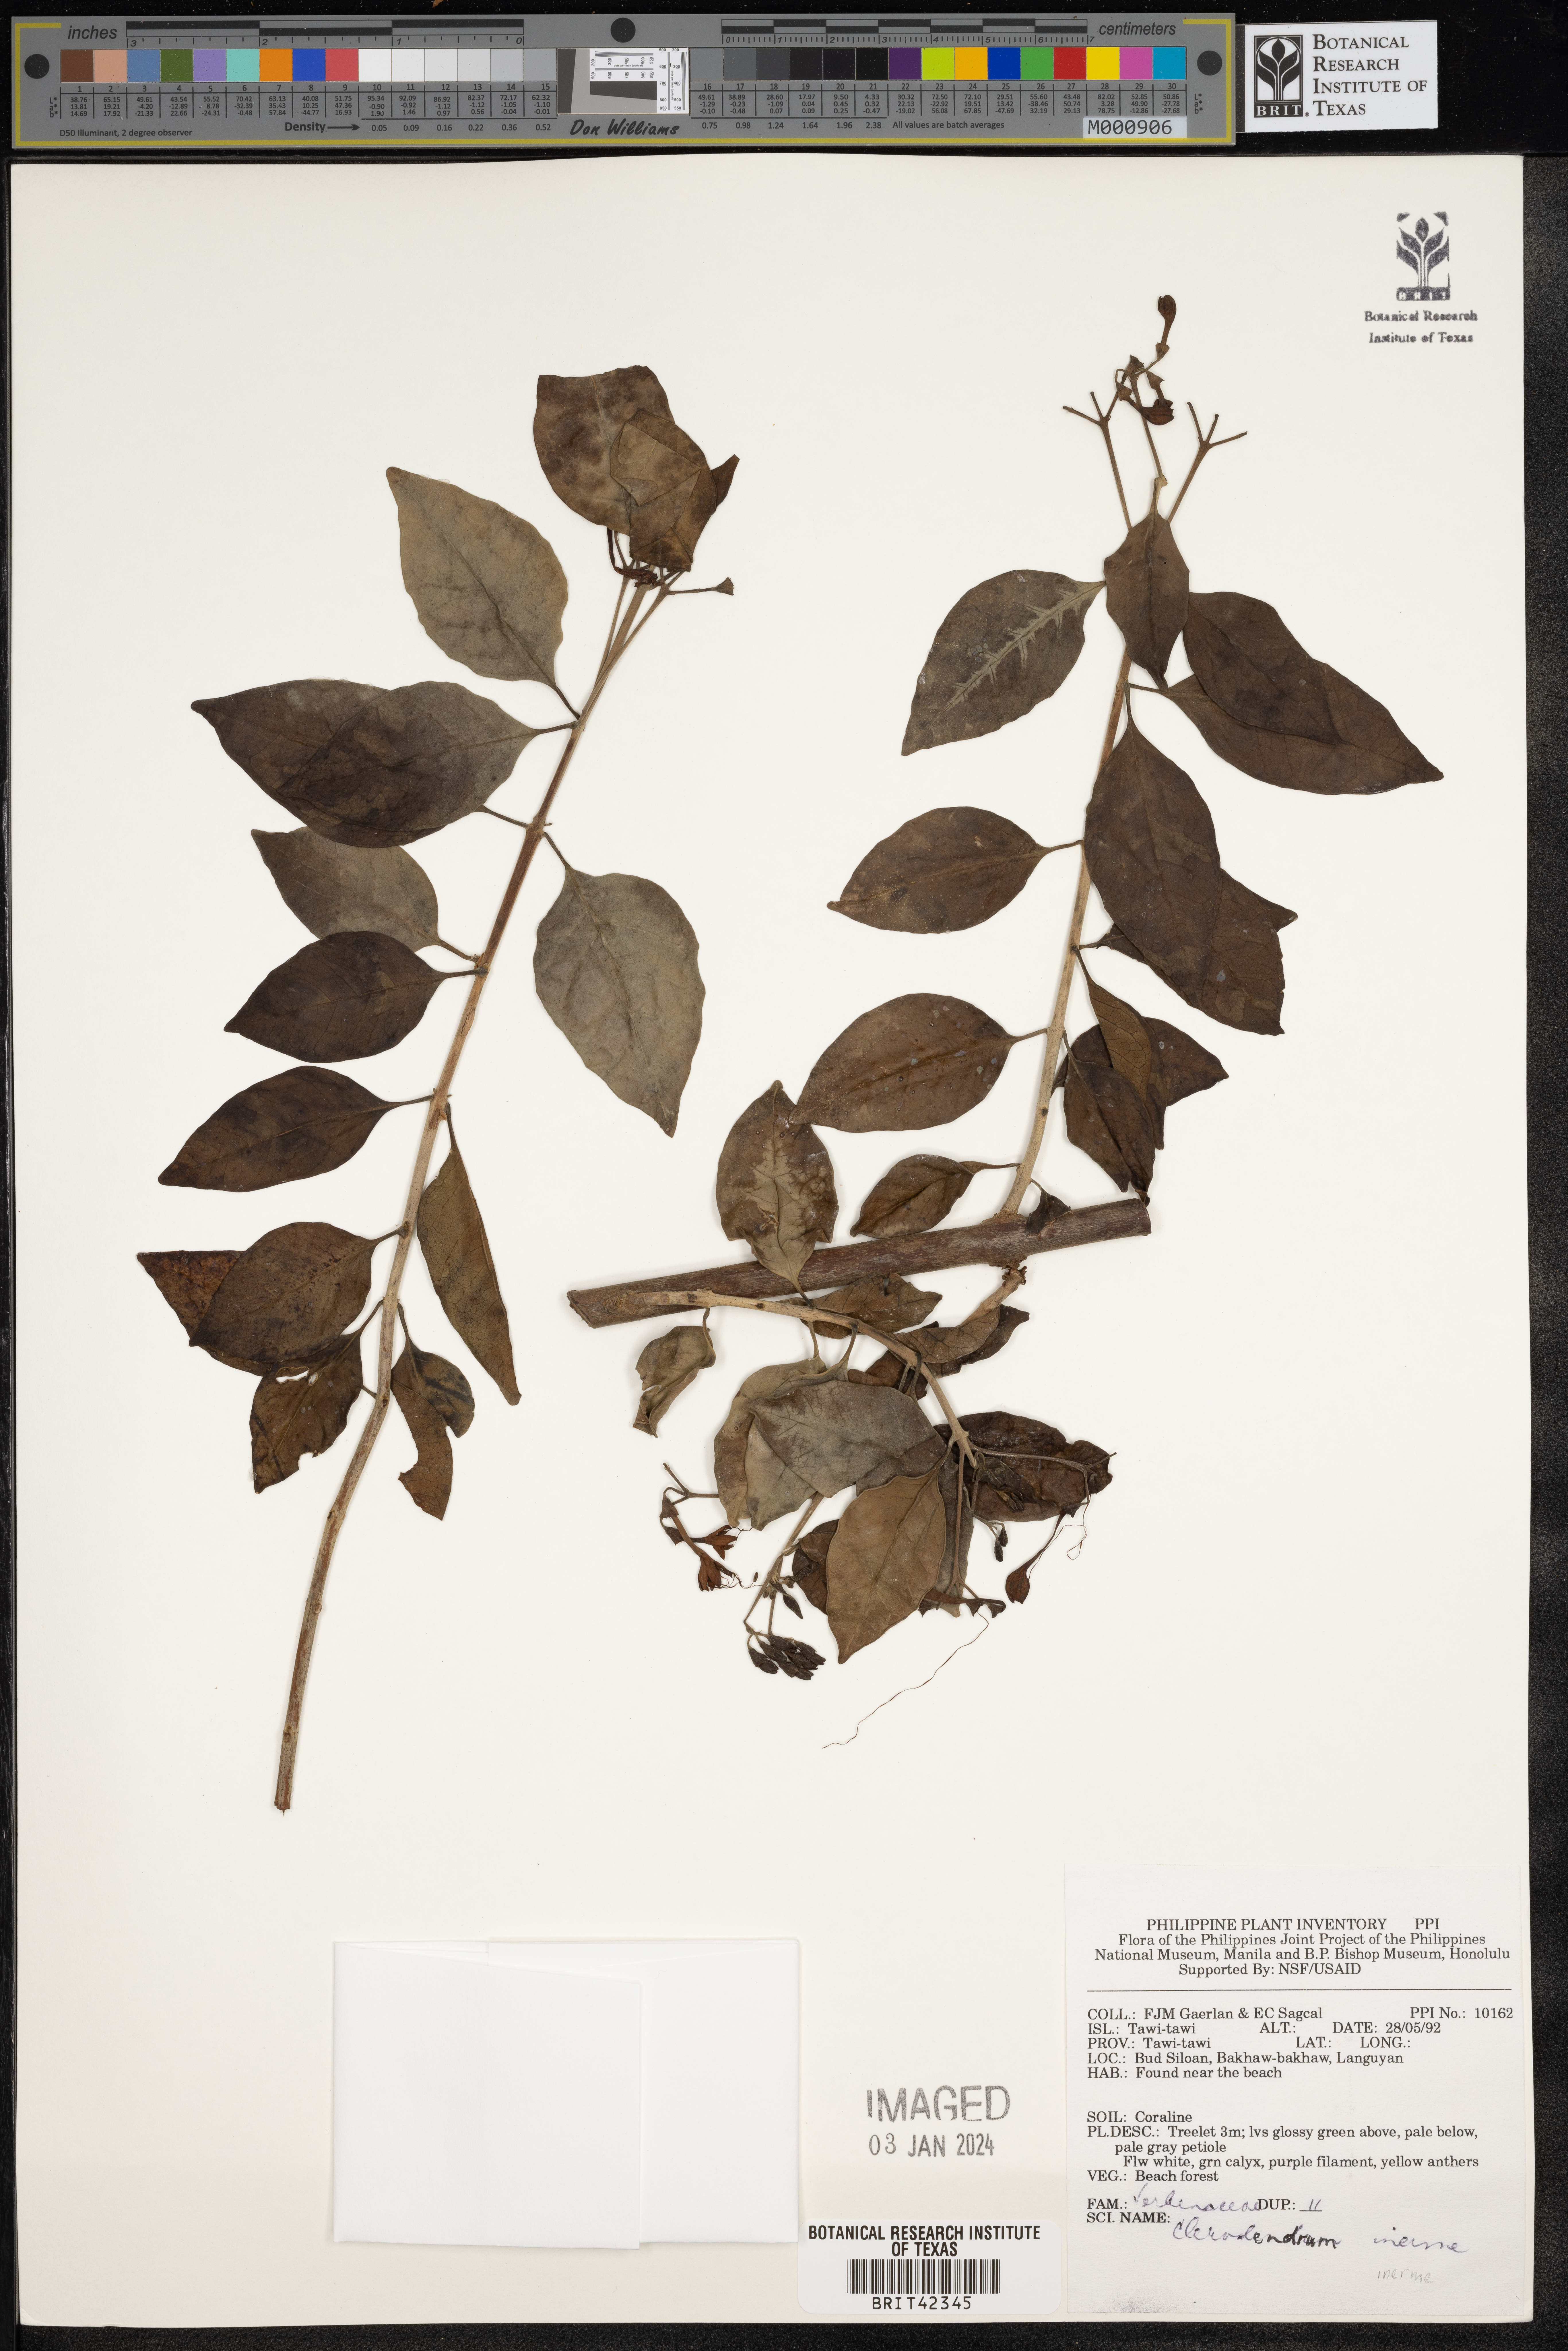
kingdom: Plantae
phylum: Tracheophyta
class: Magnoliopsida
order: Lamiales
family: Lamiaceae
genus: Volkameria
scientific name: Volkameria inermis
